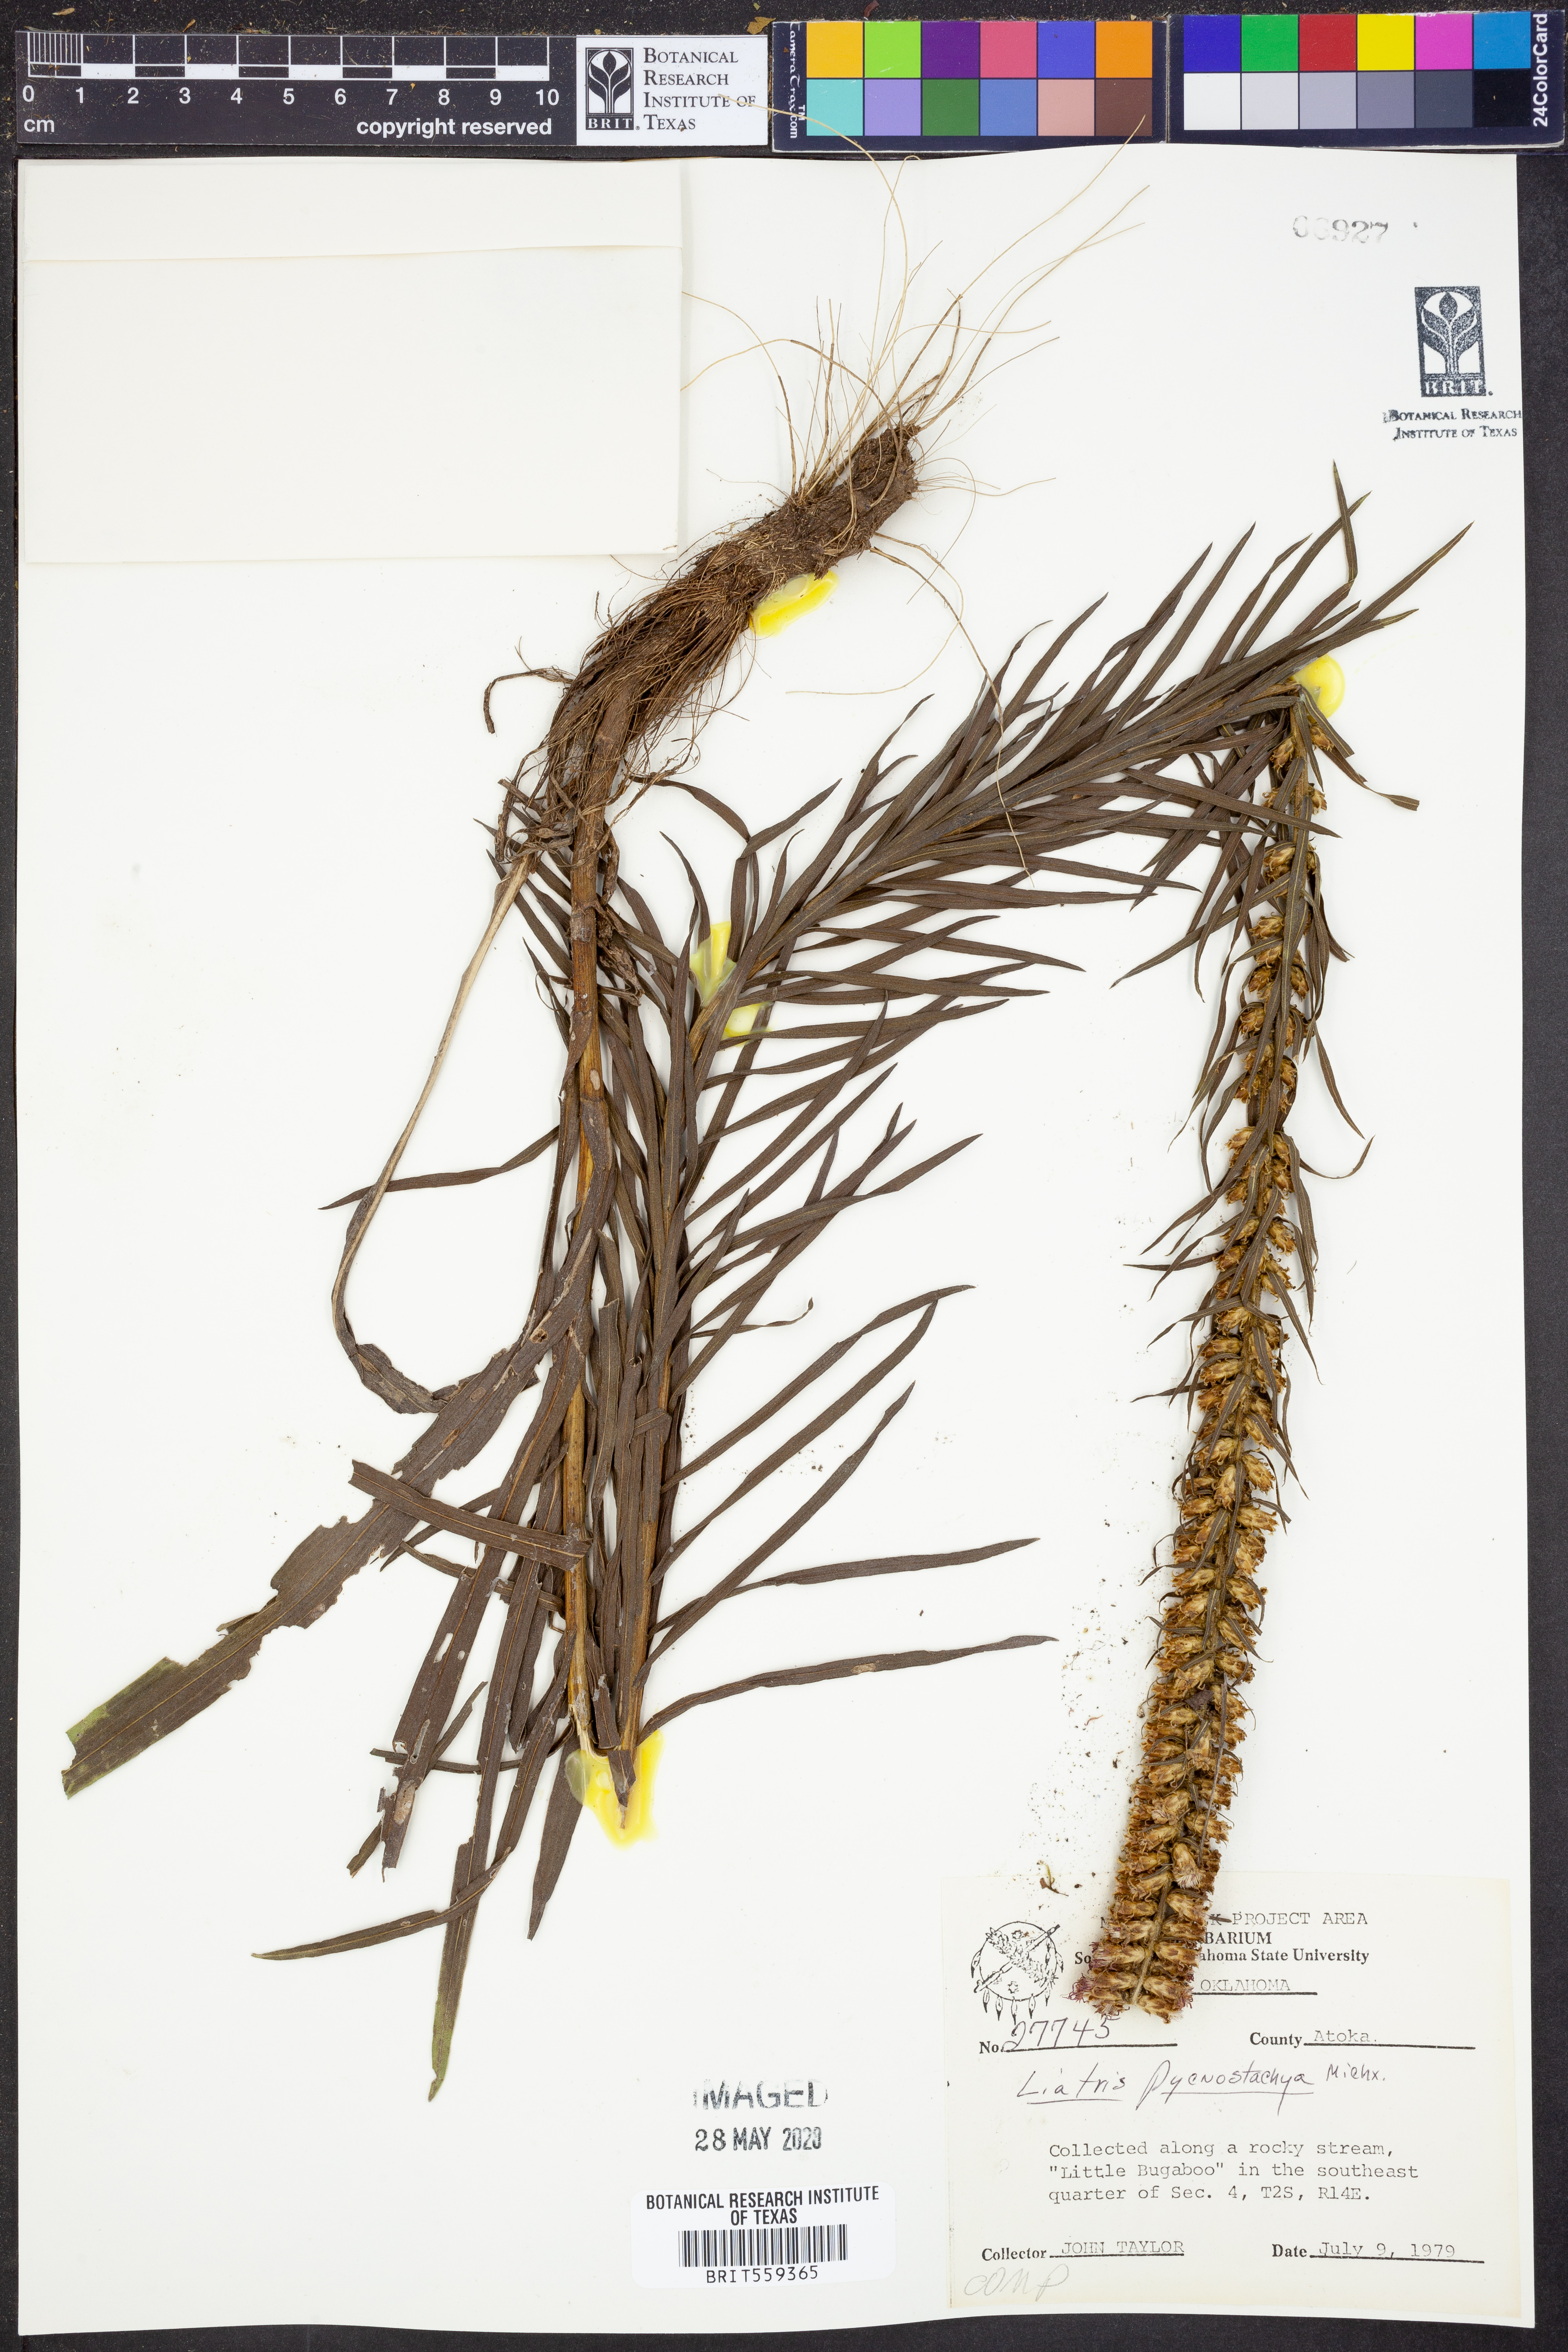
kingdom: Plantae
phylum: Tracheophyta
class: Magnoliopsida
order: Asterales
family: Asteraceae
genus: Liatris
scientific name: Liatris pycnostachya
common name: Cattail gayfeather
